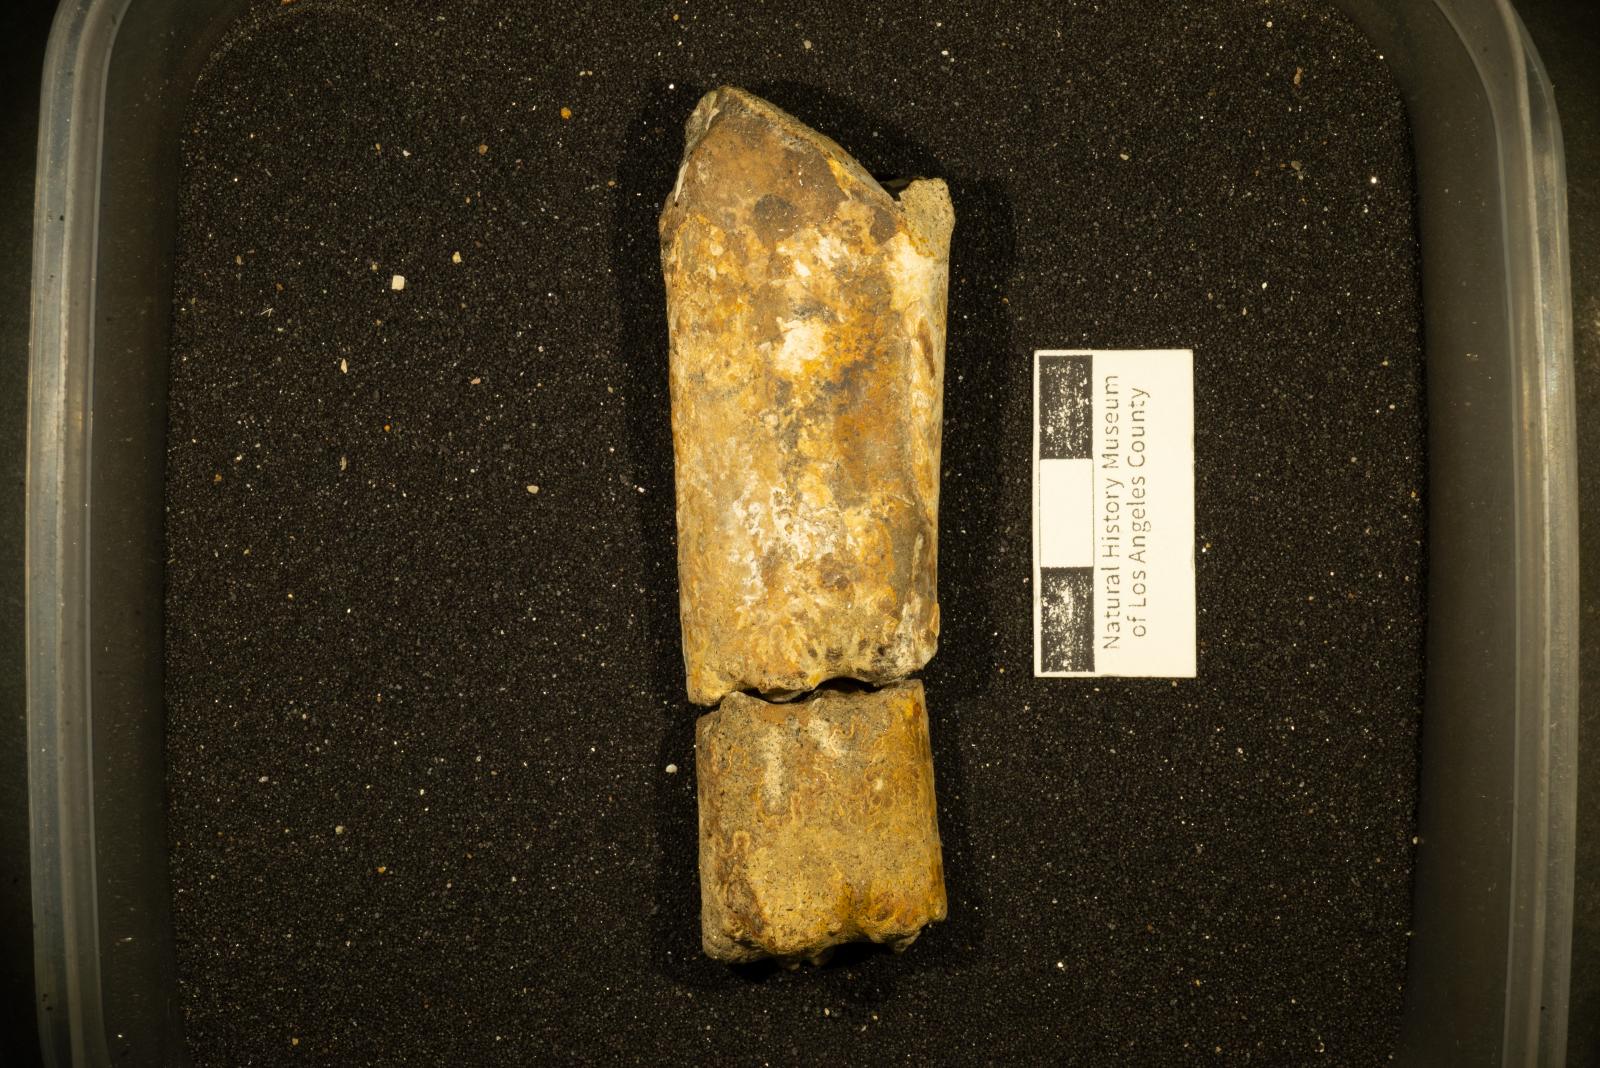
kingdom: Animalia
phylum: Mollusca
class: Cephalopoda
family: Baculitidae
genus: Baculites
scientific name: Baculites occidentalis
